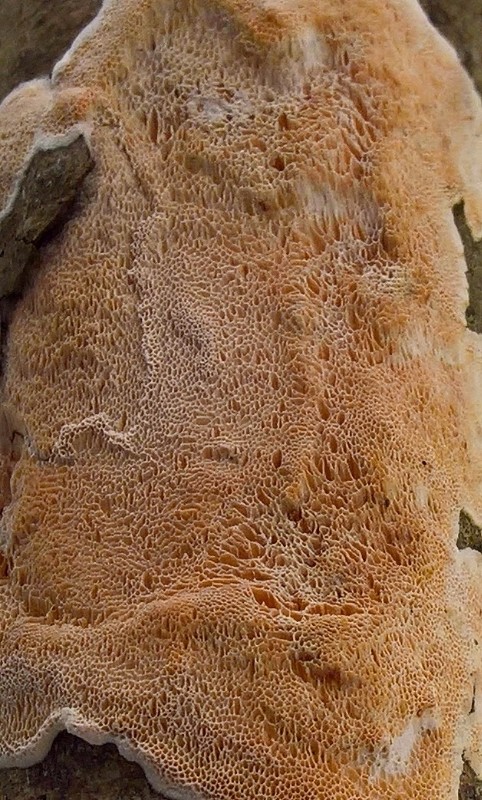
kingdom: Fungi
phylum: Basidiomycota
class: Agaricomycetes
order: Polyporales
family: Steccherinaceae
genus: Junghuhnia
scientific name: Junghuhnia nitida
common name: almindelig skønporesvamp
